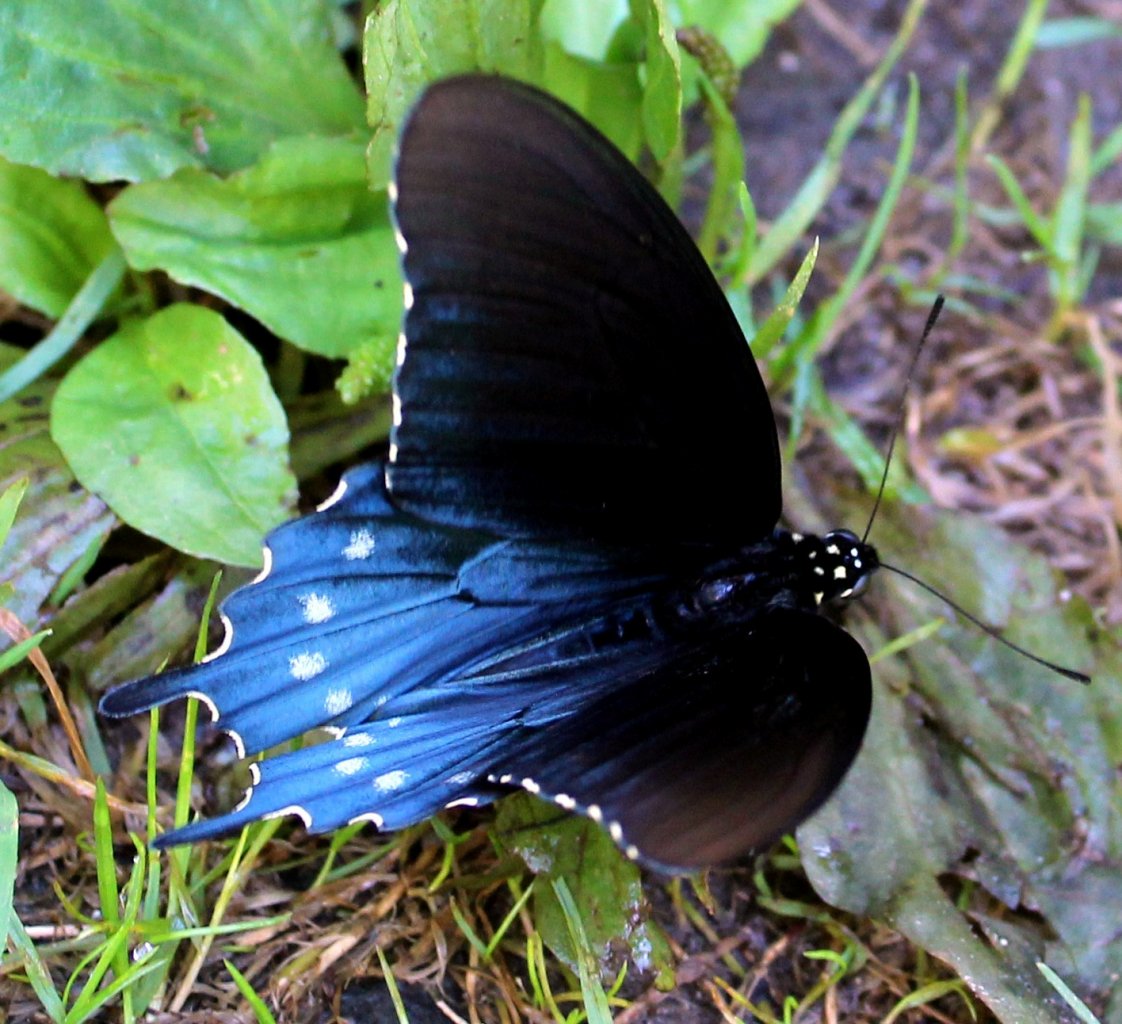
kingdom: Animalia
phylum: Arthropoda
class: Insecta
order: Lepidoptera
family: Papilionidae
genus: Battus
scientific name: Battus philenor
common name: Pipevine Swallowtail
